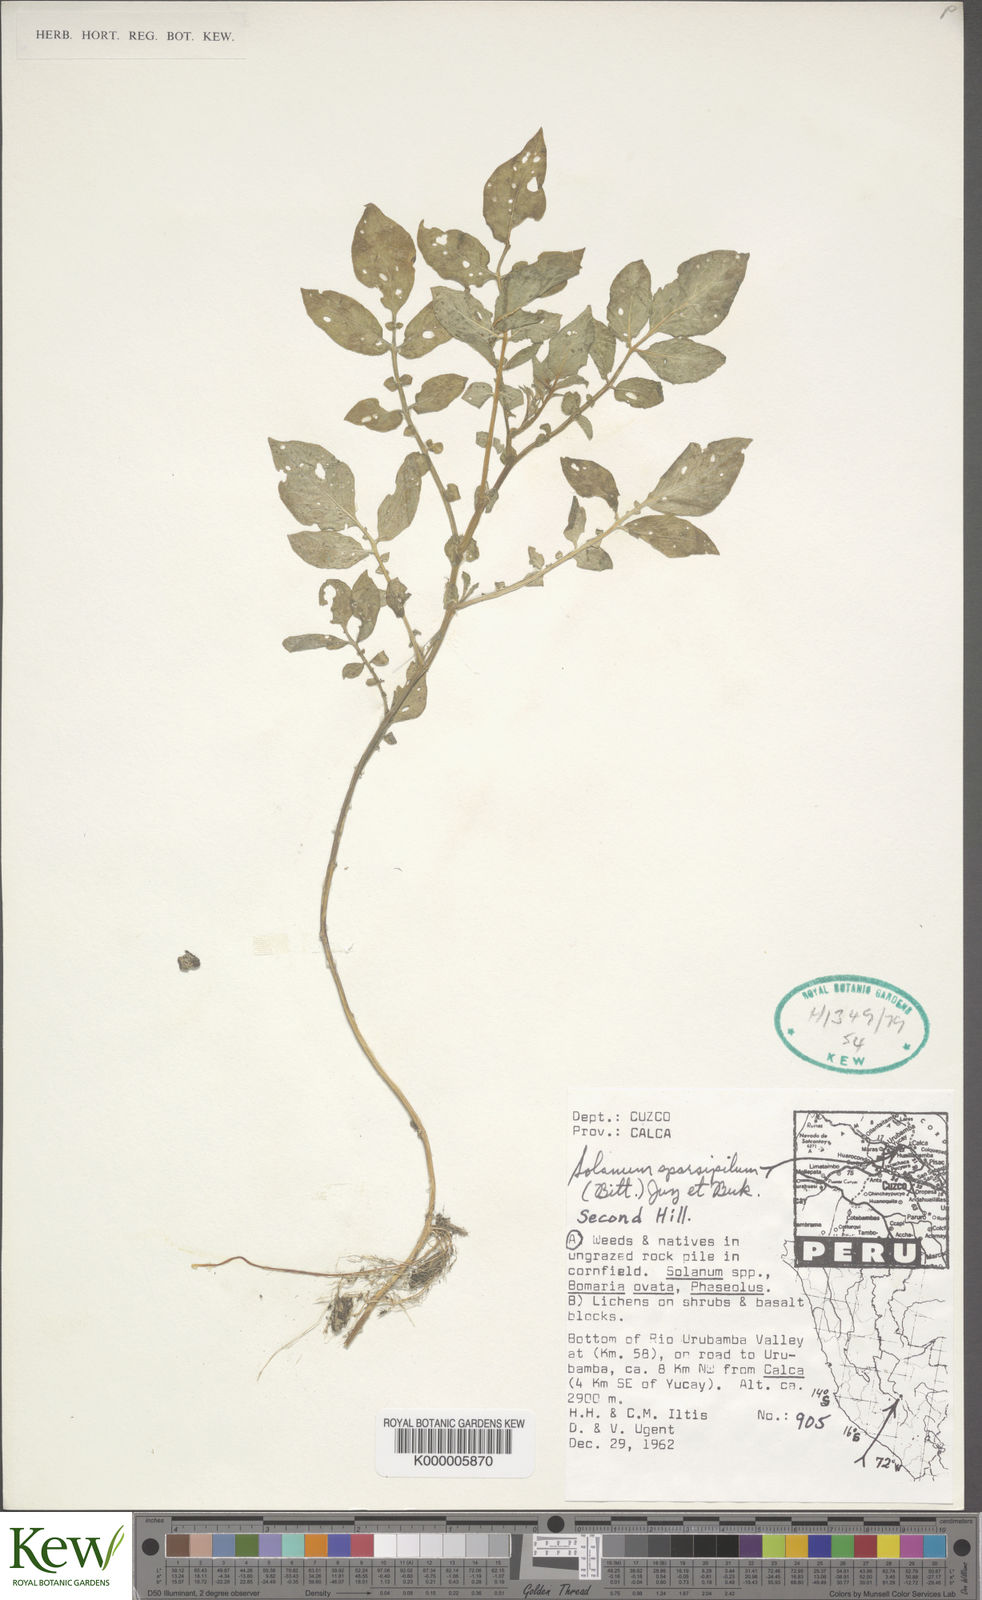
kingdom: Plantae
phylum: Tracheophyta
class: Magnoliopsida
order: Solanales
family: Solanaceae
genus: Solanum
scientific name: Solanum brevicaule
